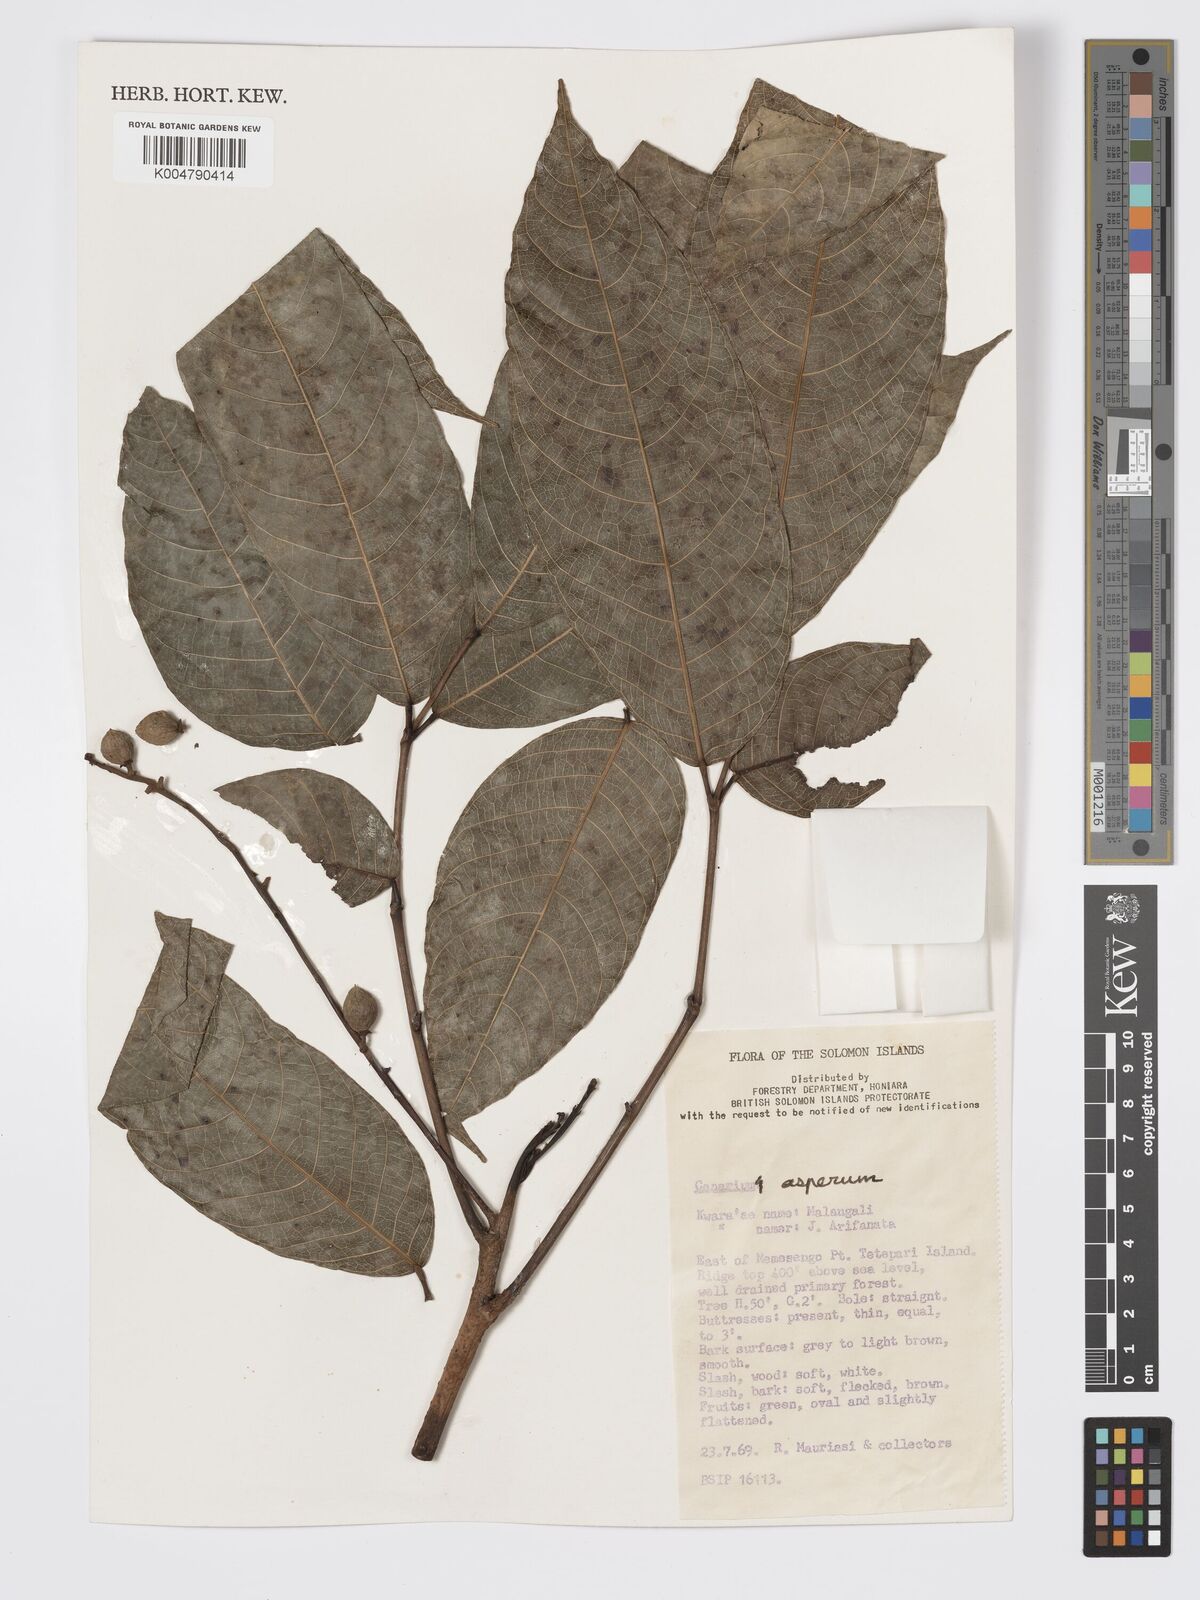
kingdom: Plantae
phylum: Tracheophyta
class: Magnoliopsida
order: Sapindales
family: Burseraceae
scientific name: Burseraceae
